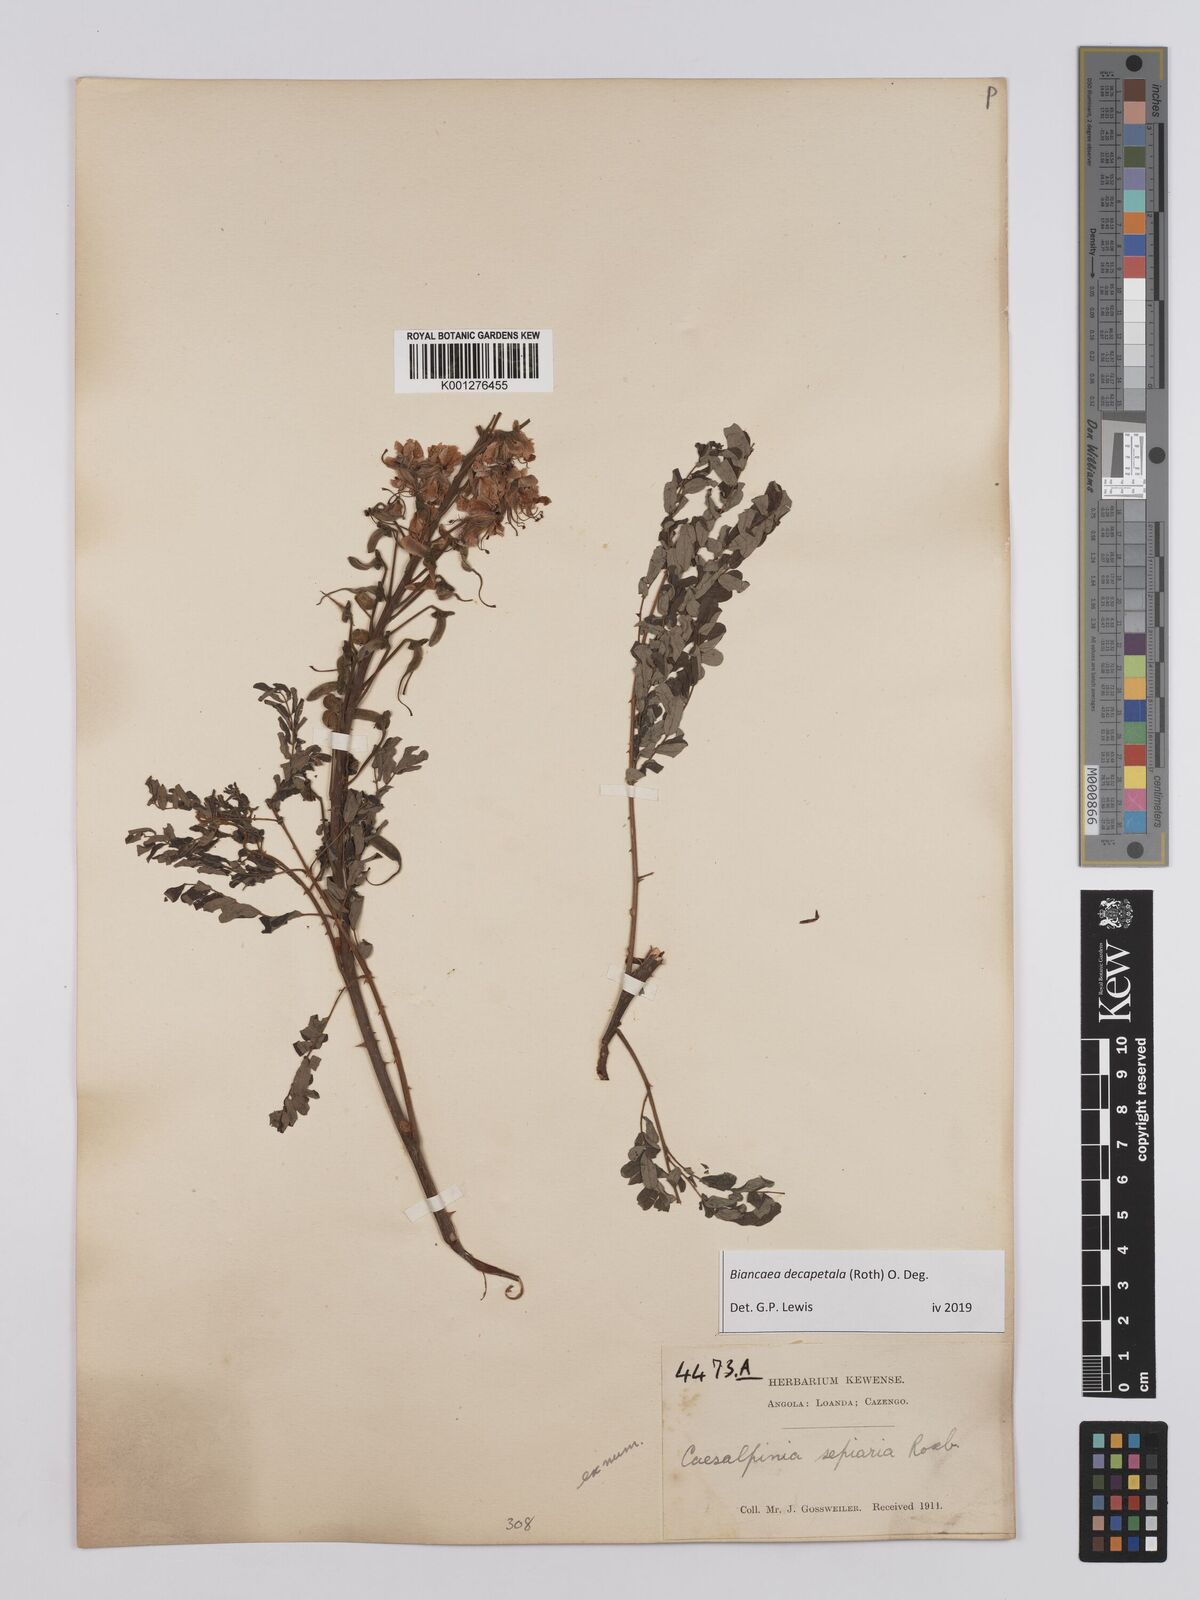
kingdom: Plantae
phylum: Tracheophyta
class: Magnoliopsida
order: Fabales
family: Fabaceae
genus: Biancaea
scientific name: Biancaea decapetala
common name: Cat's claw
